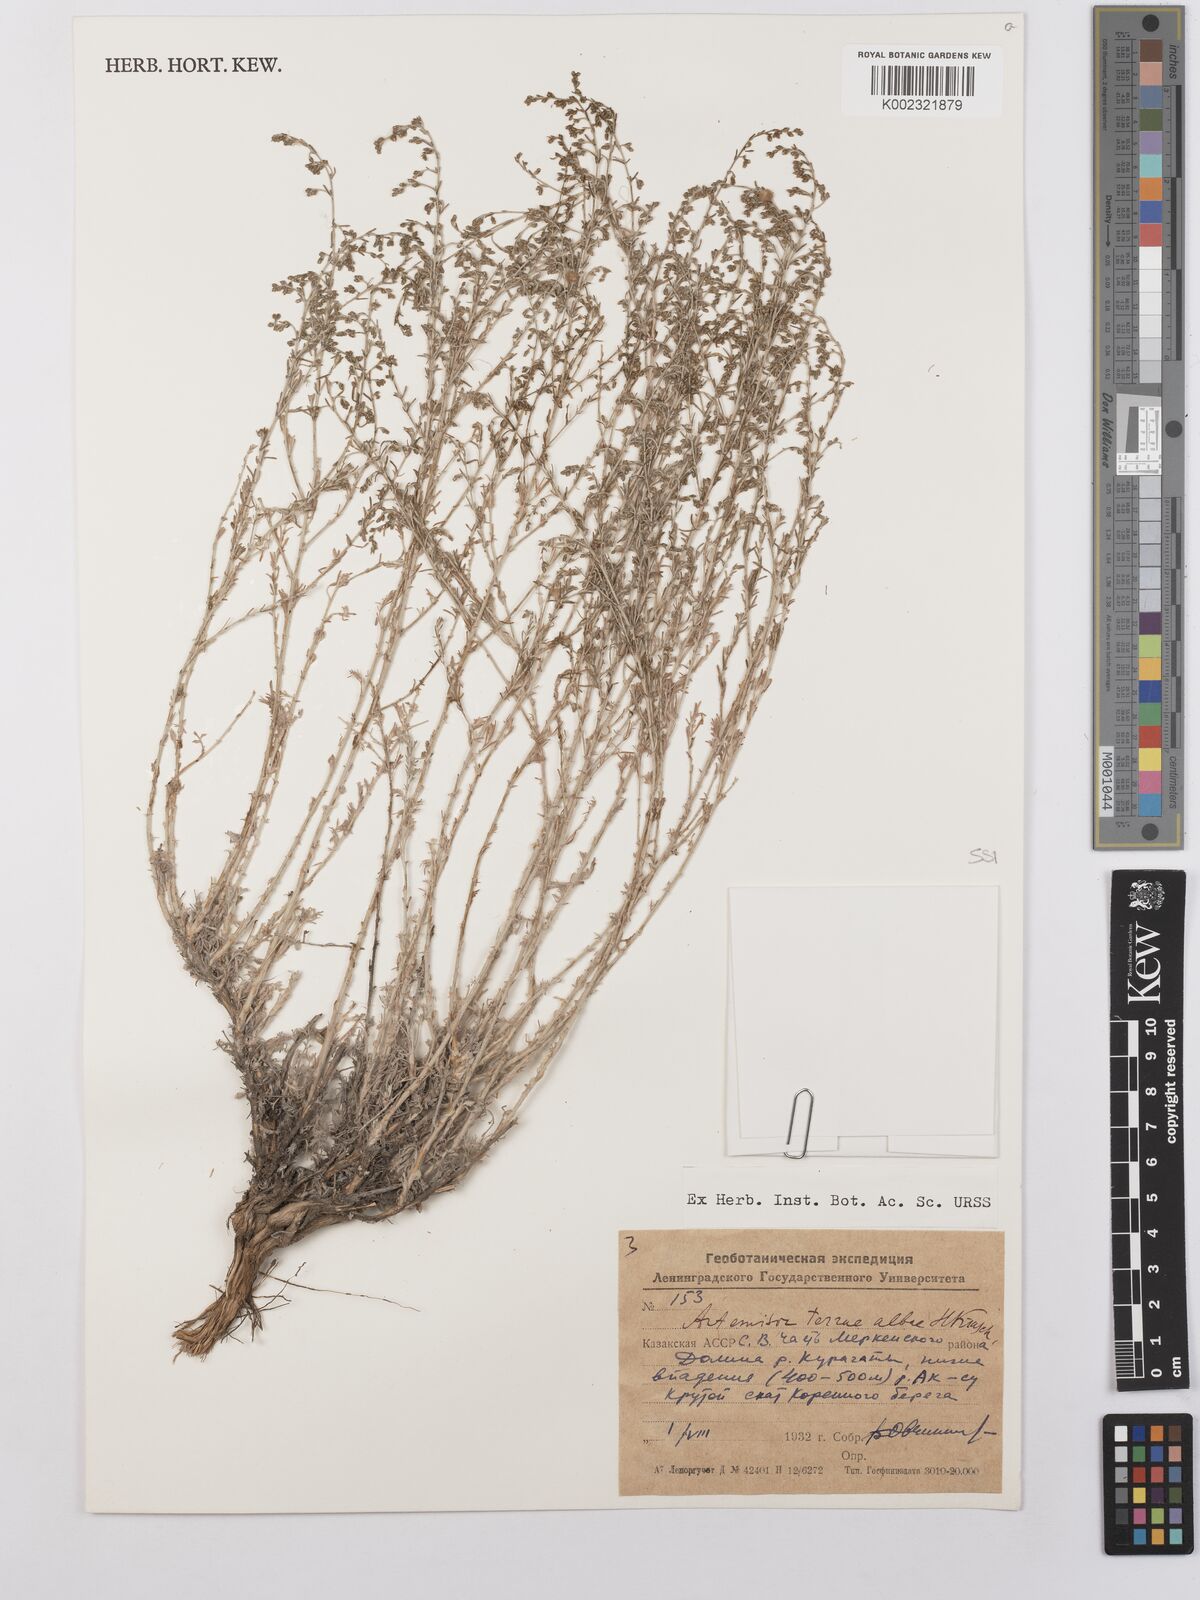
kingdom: Plantae
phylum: Tracheophyta
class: Magnoliopsida
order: Asterales
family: Asteraceae
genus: Artemisia
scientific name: Artemisia terrae-albae
